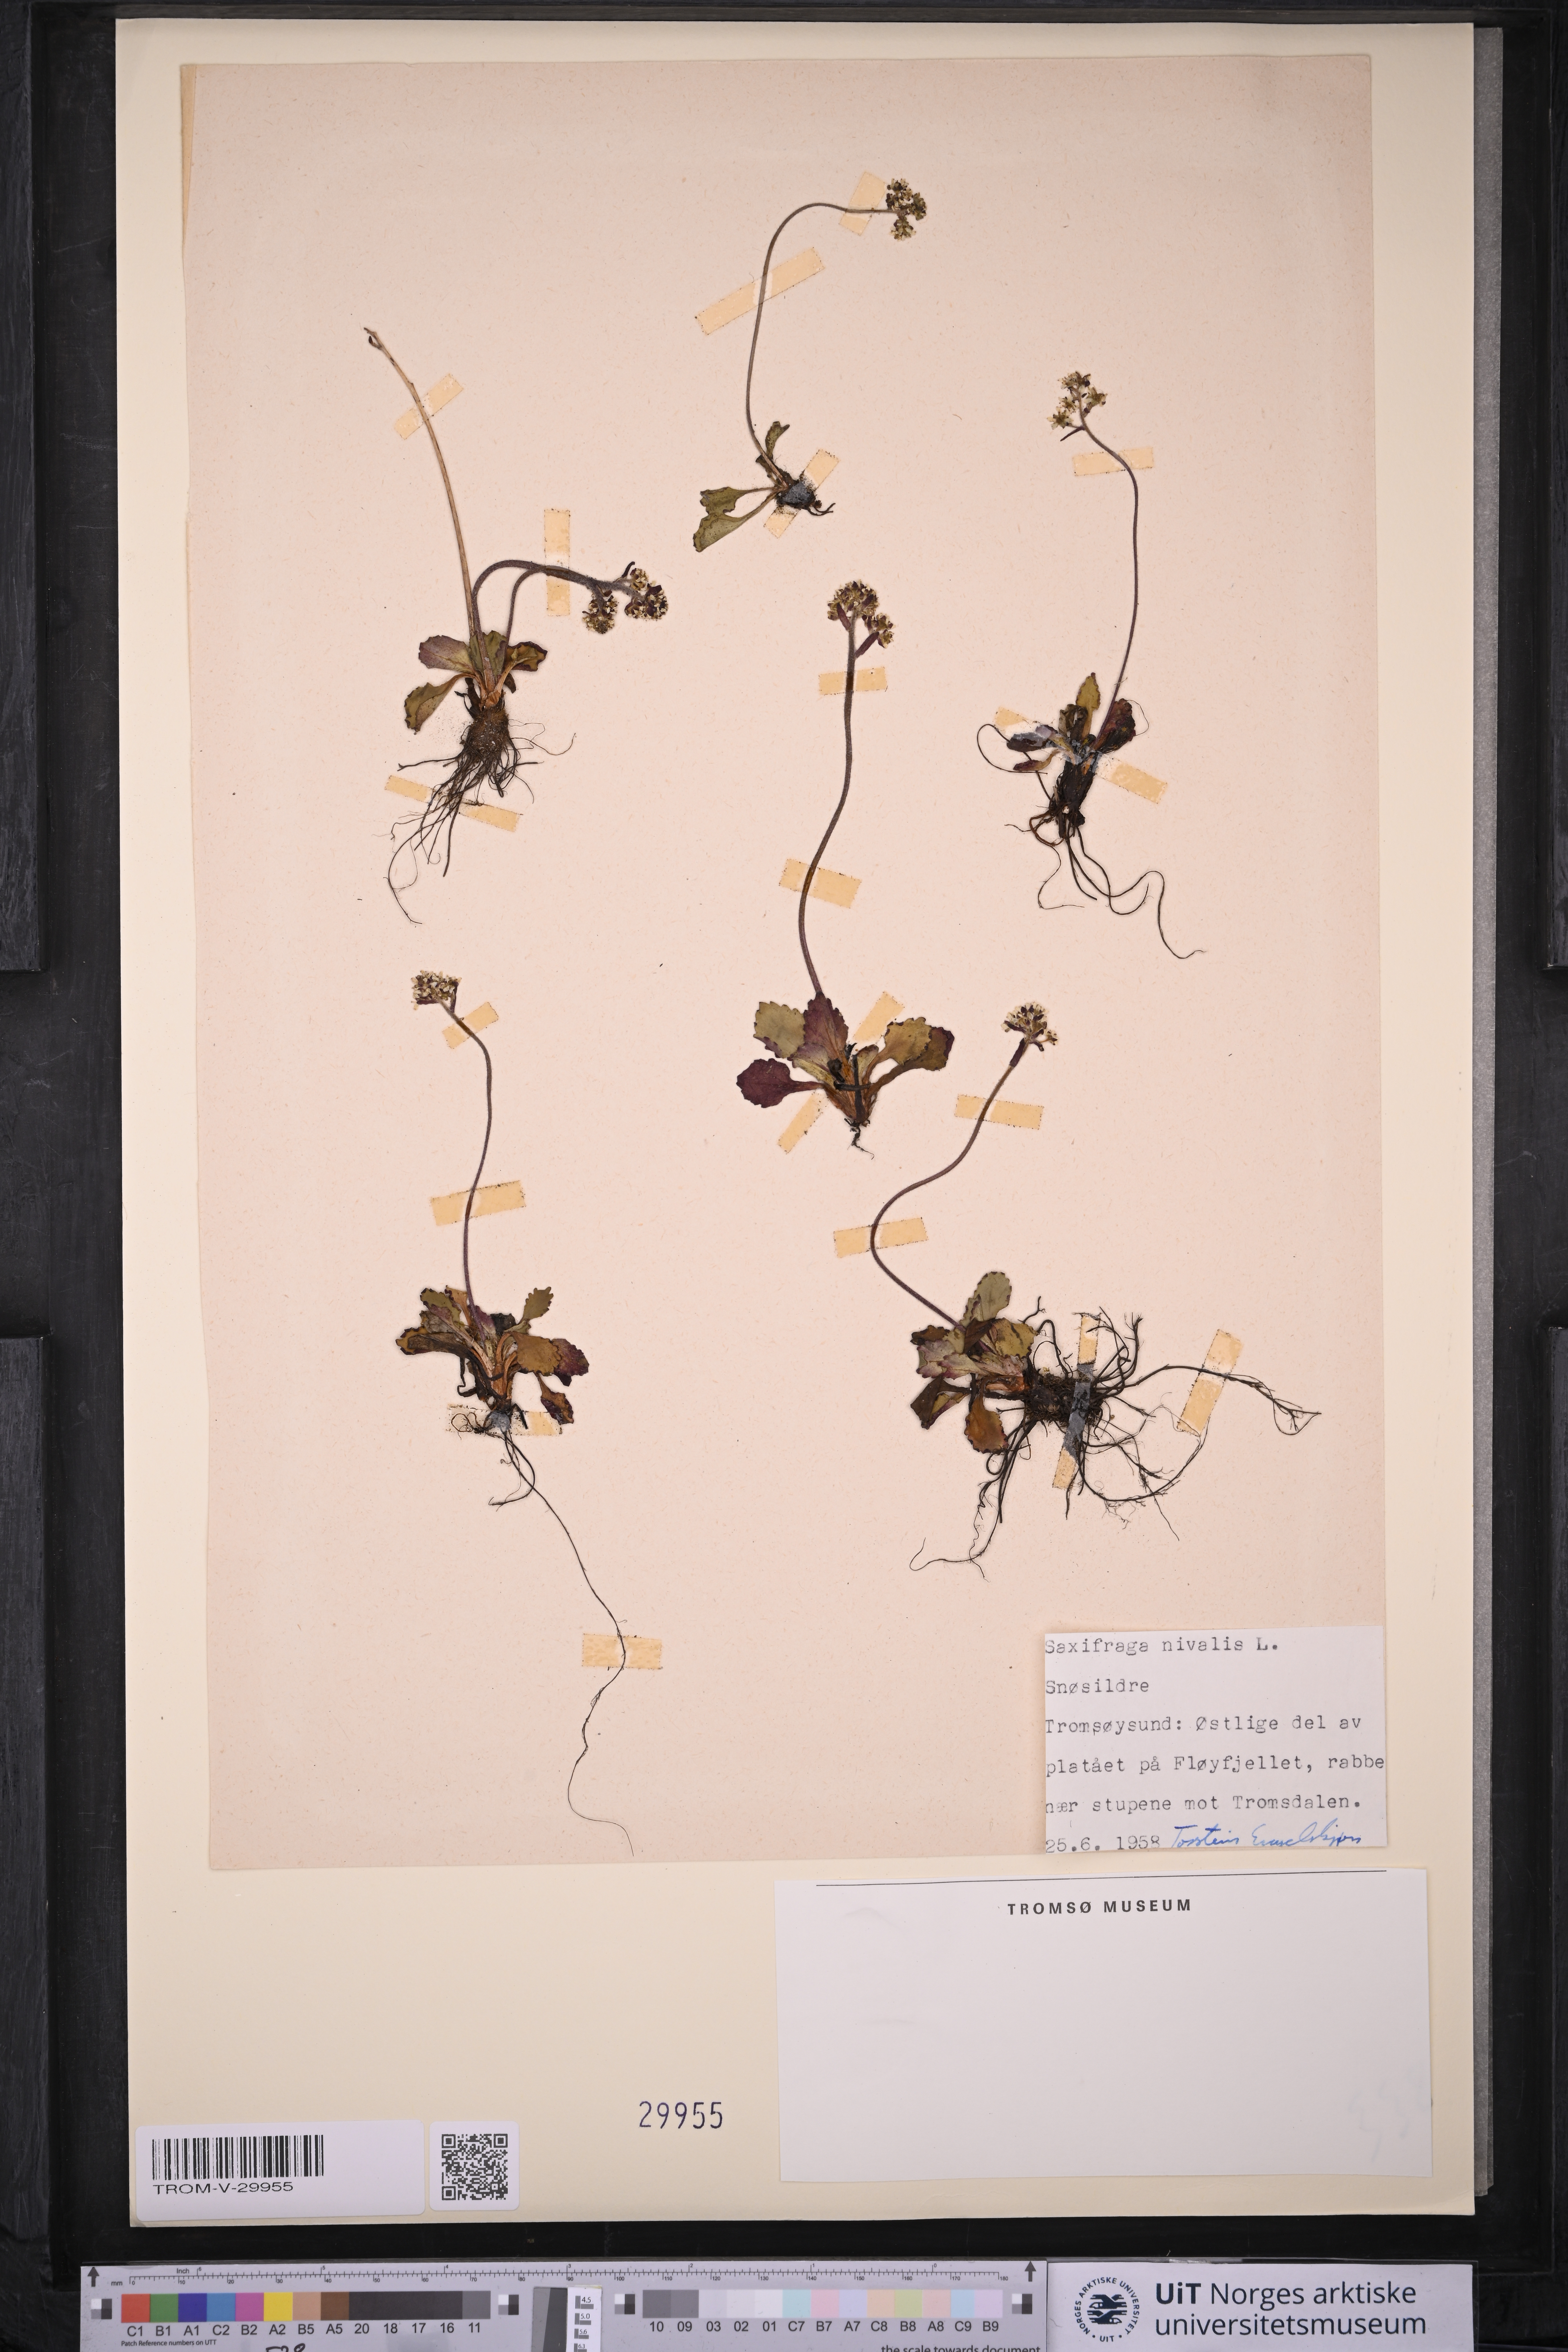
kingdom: Plantae
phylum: Tracheophyta
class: Magnoliopsida
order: Saxifragales
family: Saxifragaceae
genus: Micranthes
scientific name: Micranthes nivalis
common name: Alpine saxifrage
